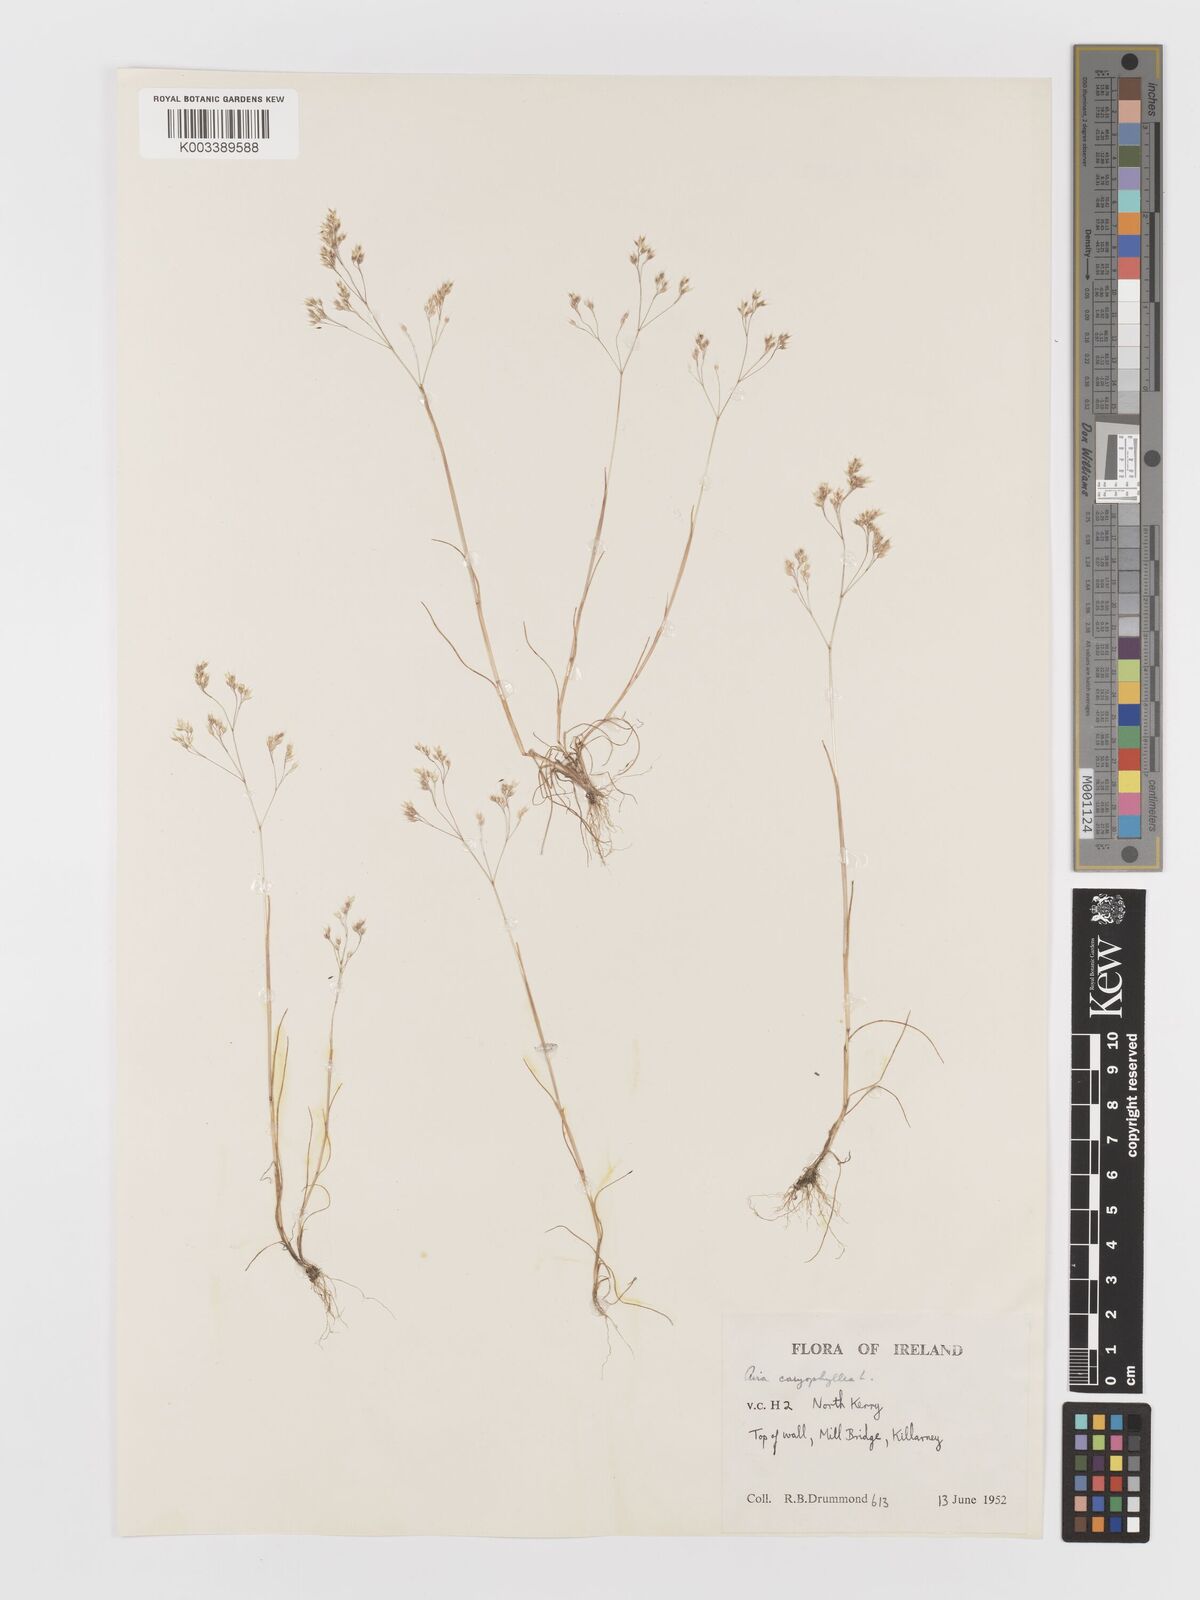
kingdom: Plantae
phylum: Tracheophyta
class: Liliopsida
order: Poales
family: Poaceae
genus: Aira
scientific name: Aira caryophyllea
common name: Silver hairgrass
